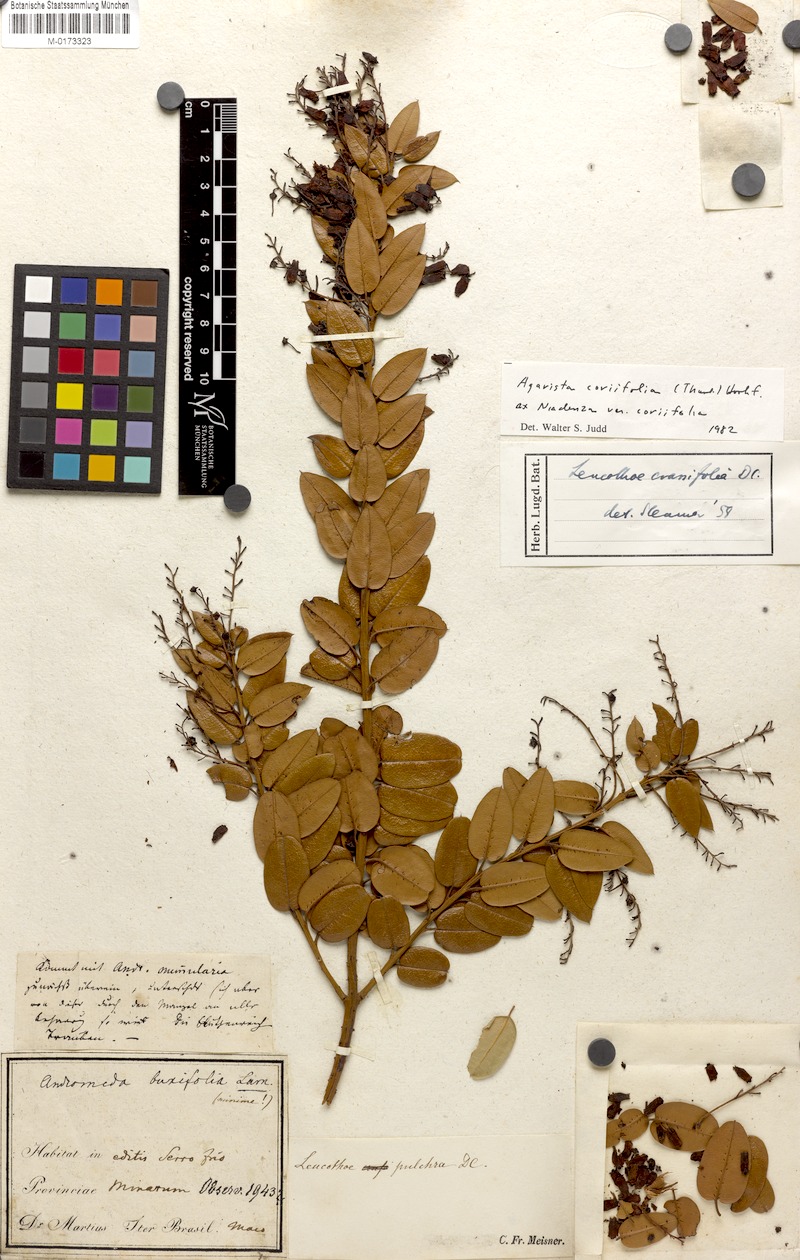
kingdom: Plantae
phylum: Tracheophyta
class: Magnoliopsida
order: Ericales
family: Ericaceae
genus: Agarista
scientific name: Agarista coriifolia
